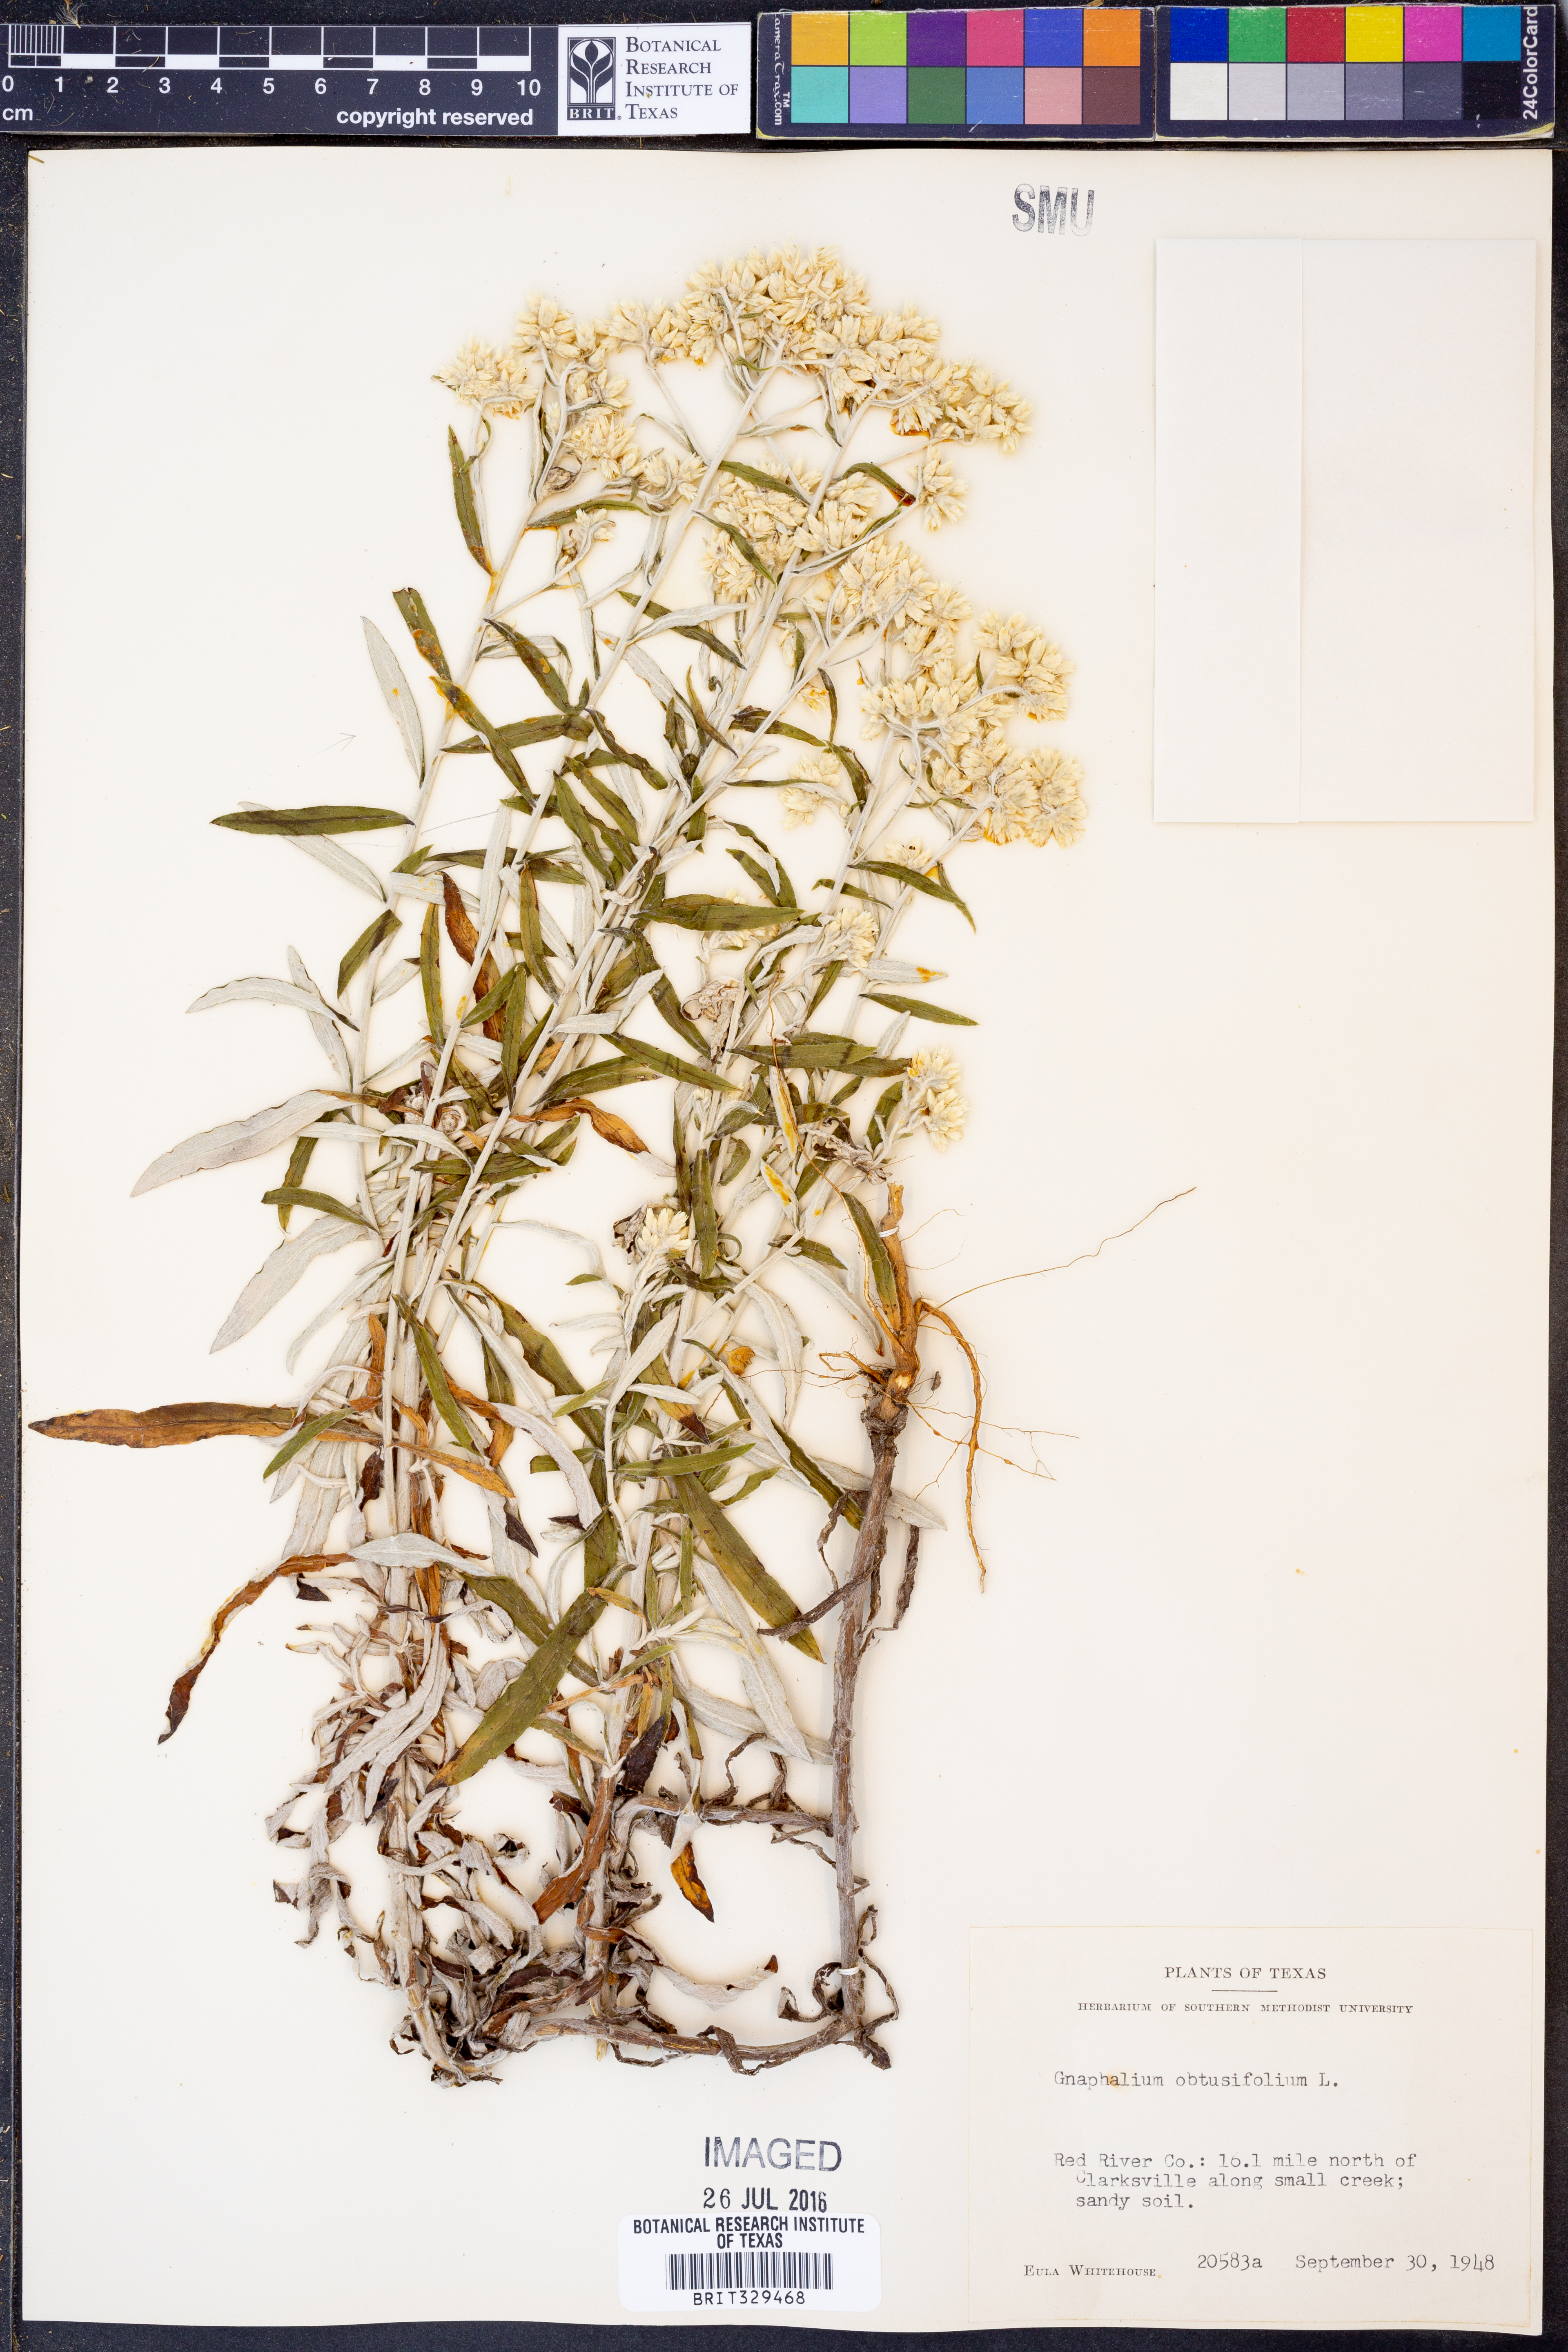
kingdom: Plantae
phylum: Tracheophyta
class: Magnoliopsida
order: Asterales
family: Asteraceae
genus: Pseudognaphalium
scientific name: Pseudognaphalium obtusifolium
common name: Eastern rabbit-tobacco
